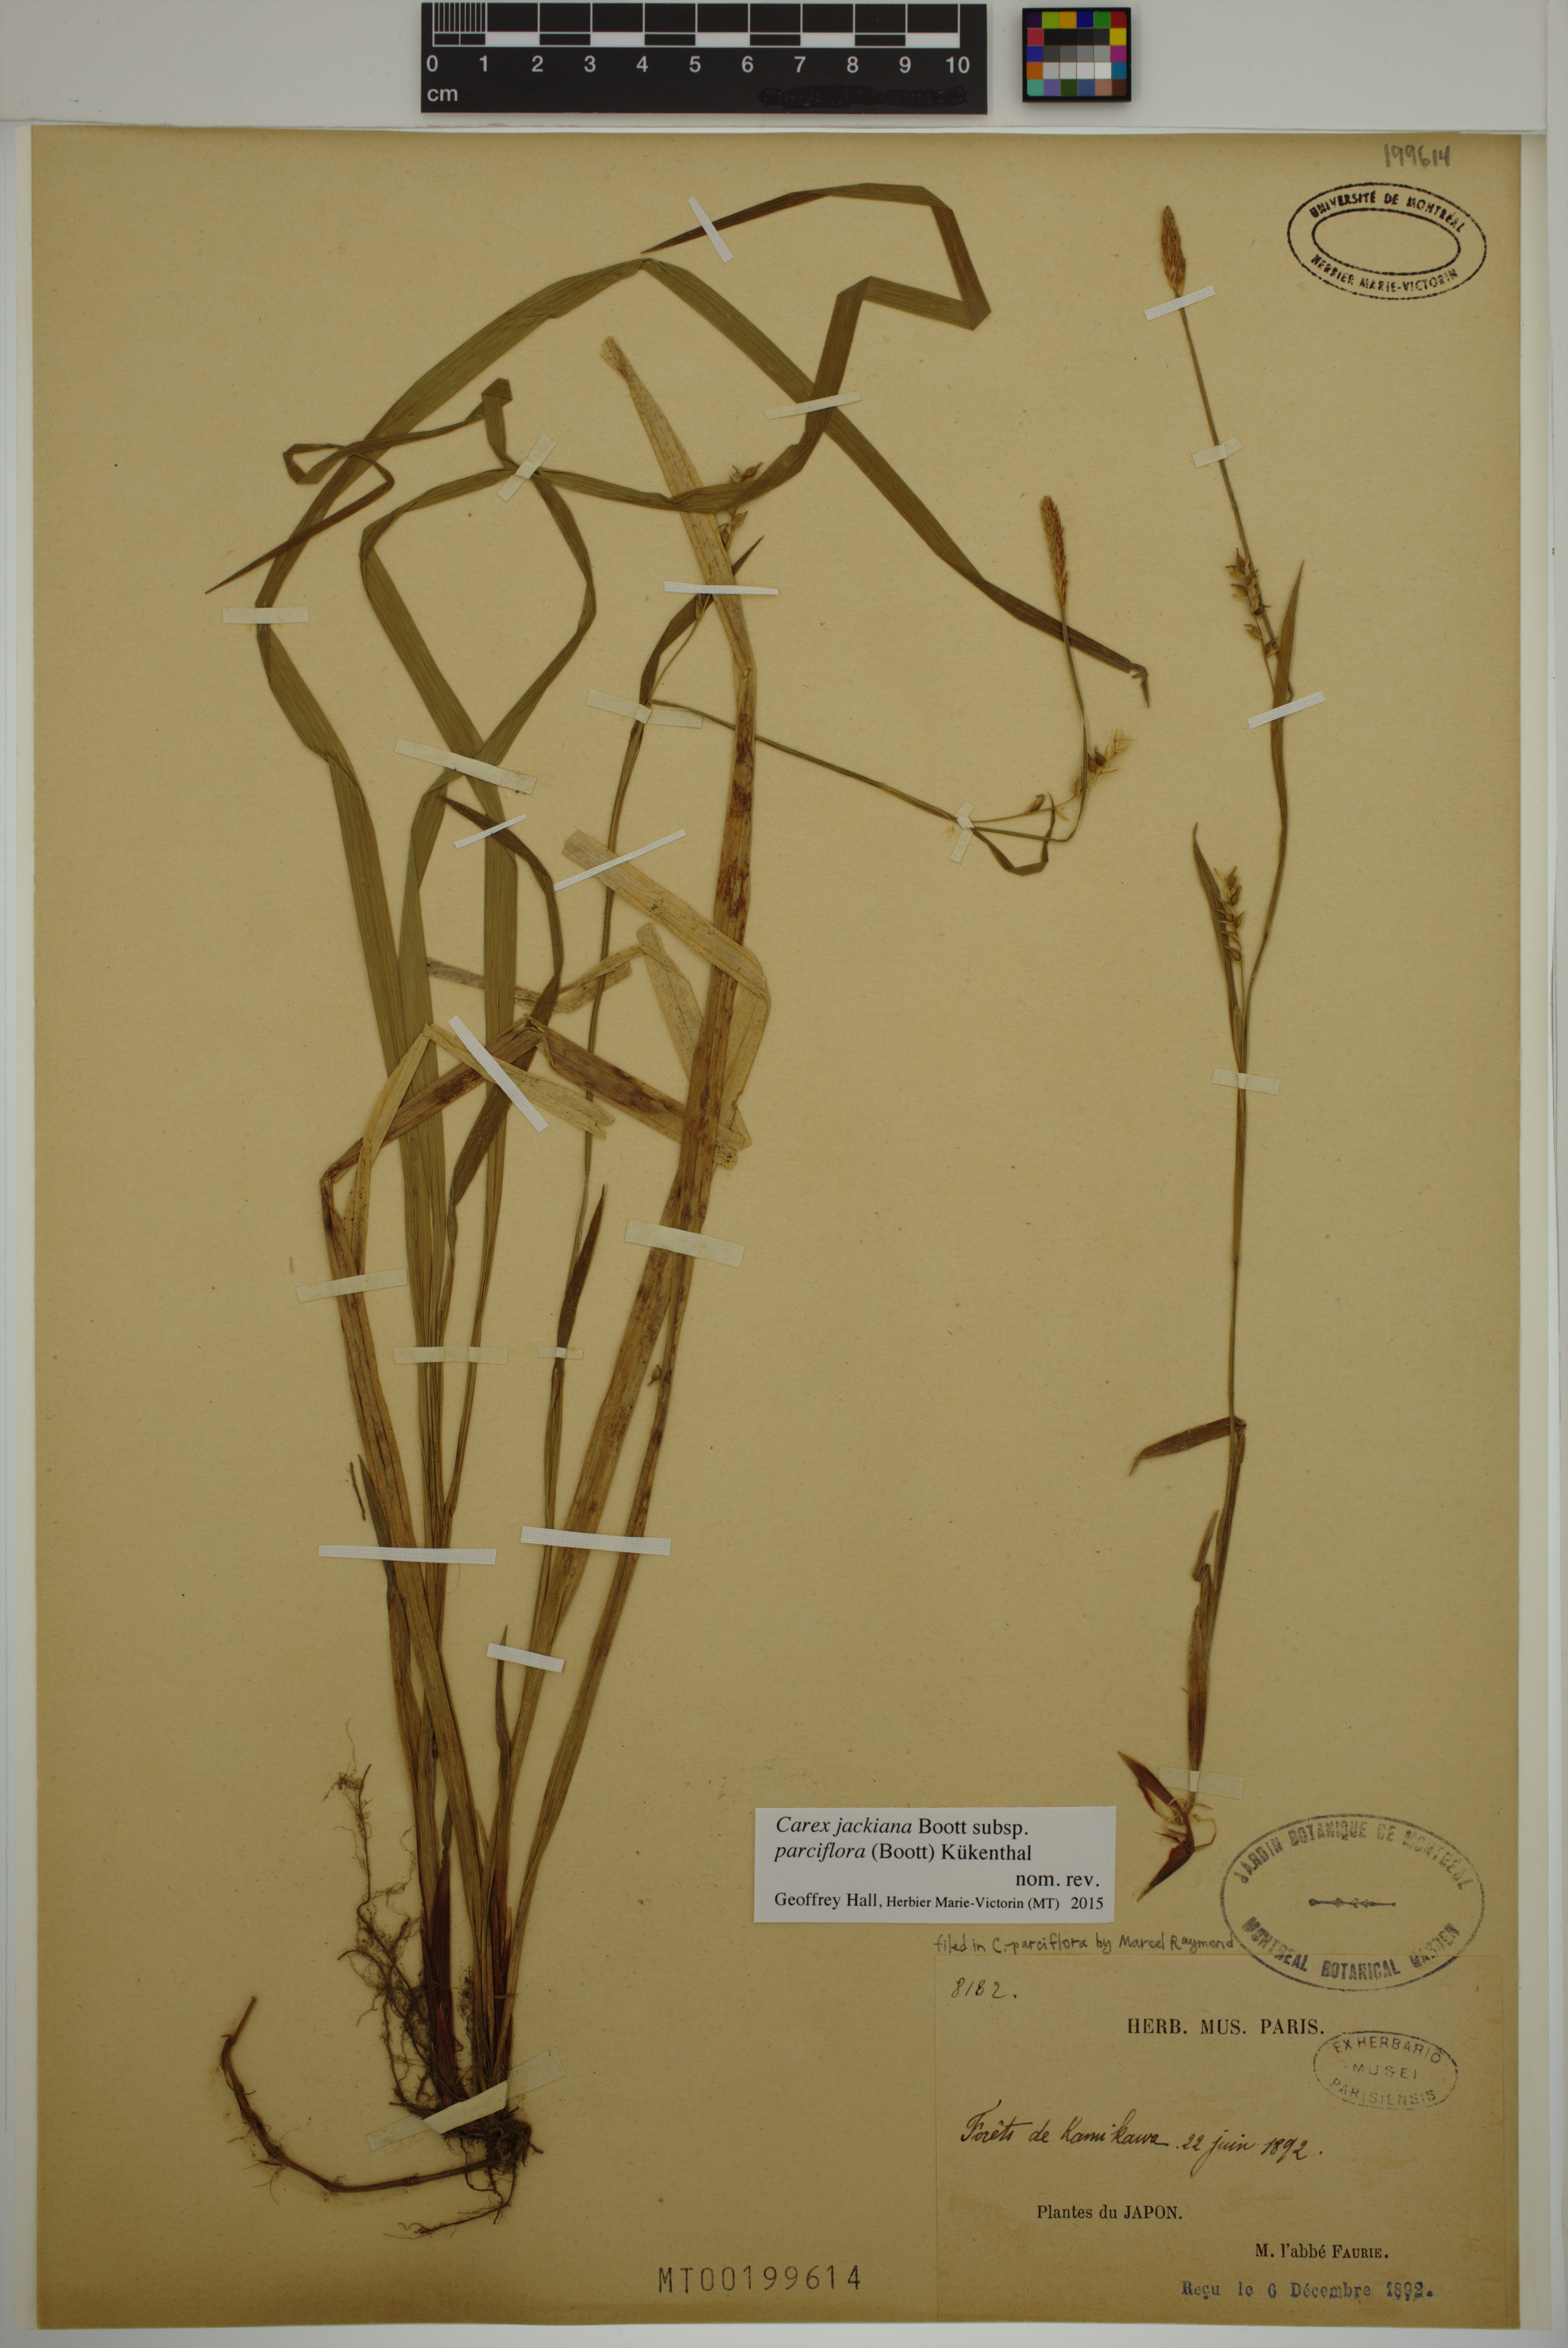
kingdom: Plantae
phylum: Tracheophyta
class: Liliopsida
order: Poales
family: Cyperaceae
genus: Carex
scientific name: Carex parciflora
